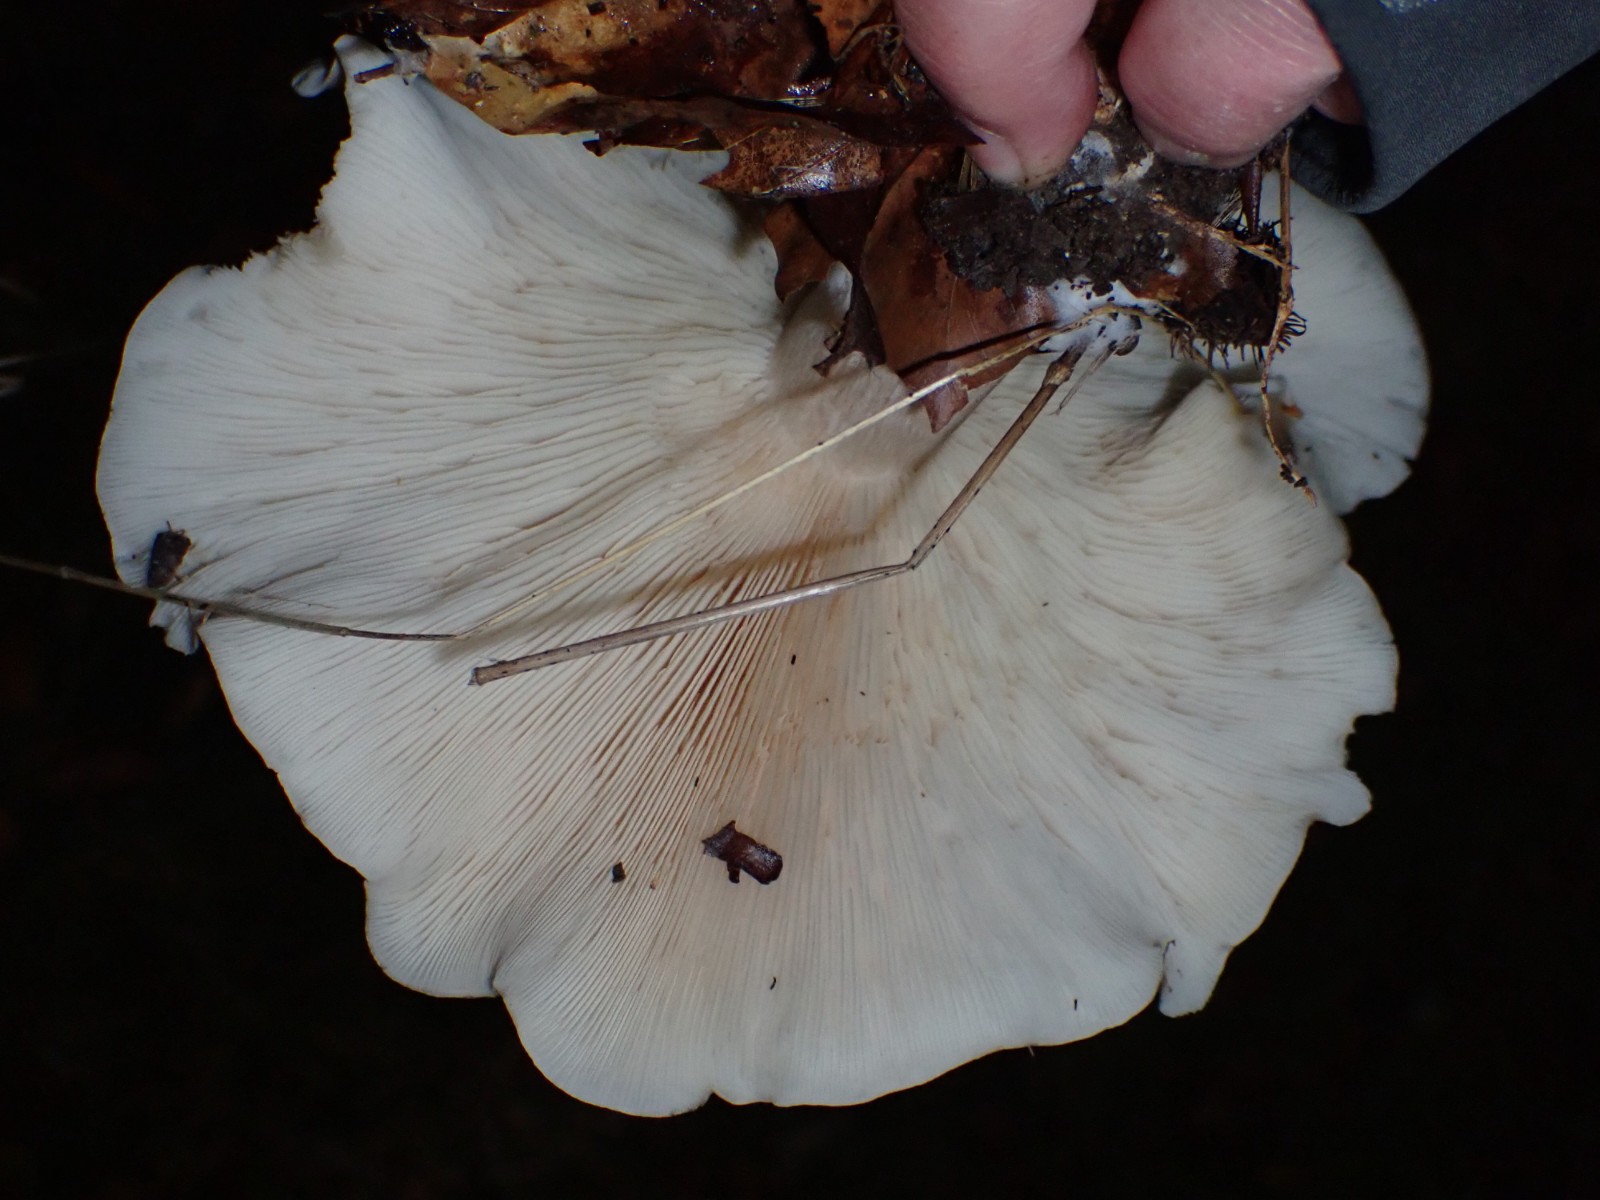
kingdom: Fungi
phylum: Basidiomycota
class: Agaricomycetes
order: Agaricales
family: Tricholomataceae
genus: Clitocybe
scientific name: Clitocybe nebularis
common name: tåge-tragthat
